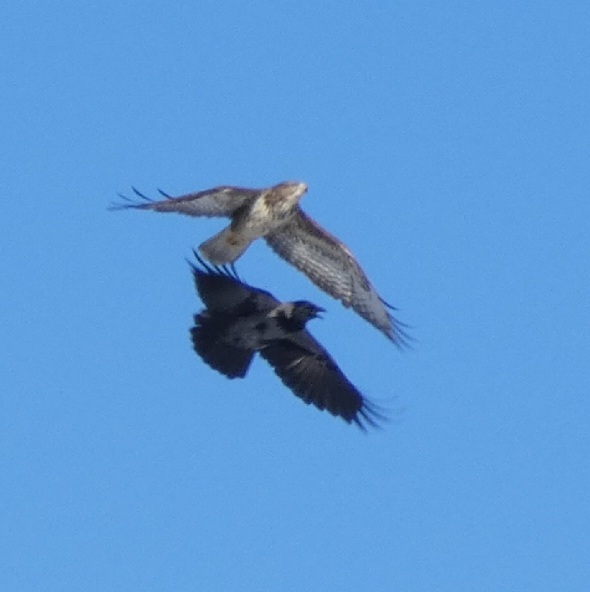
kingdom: Animalia
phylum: Chordata
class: Aves
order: Accipitriformes
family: Accipitridae
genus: Buteo
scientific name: Buteo buteo
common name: Musvåge
